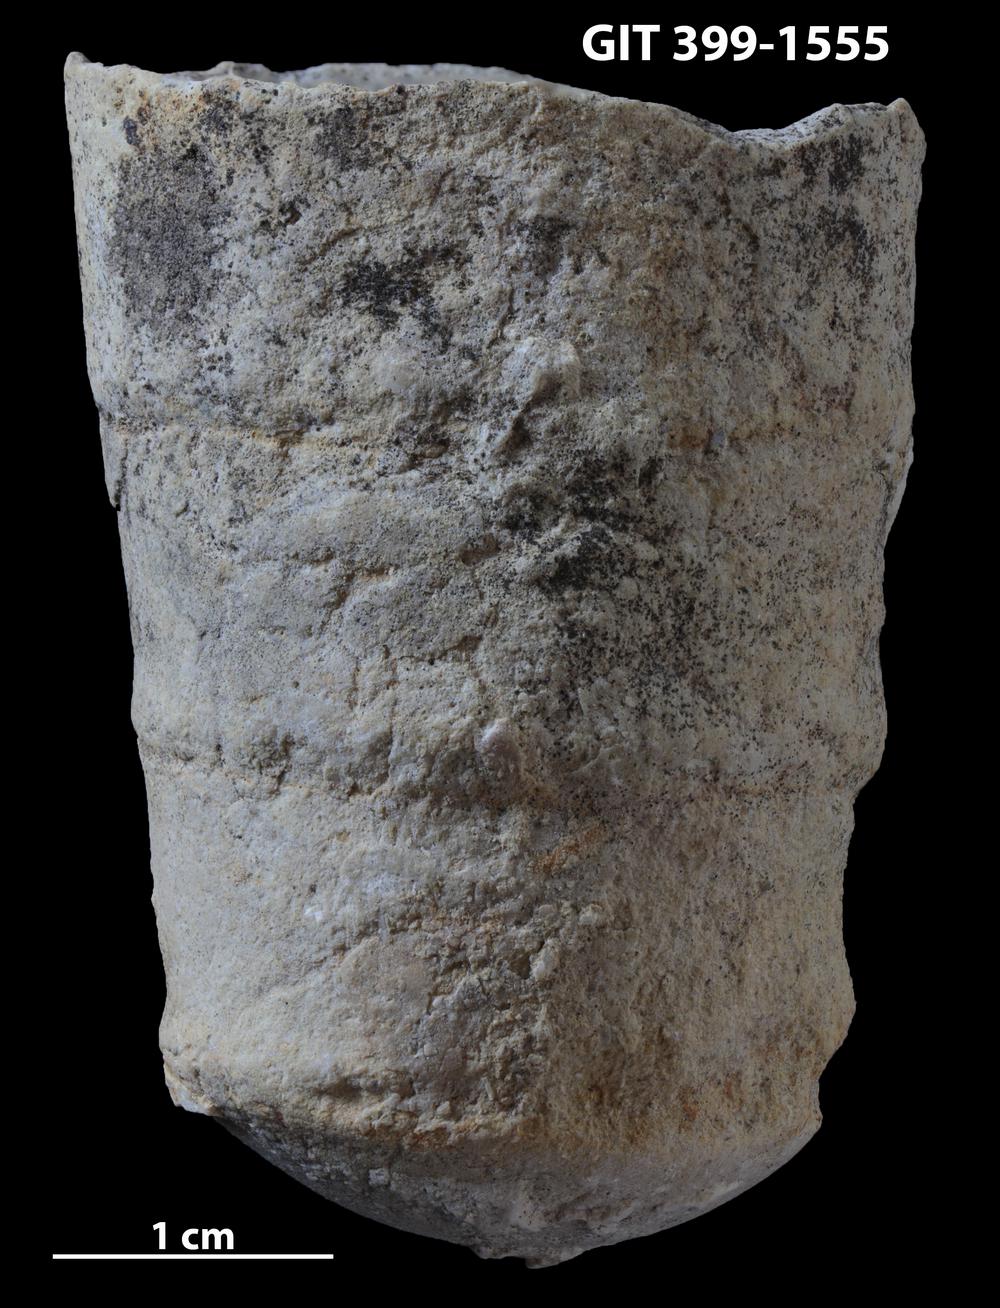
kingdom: Animalia
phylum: Mollusca
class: Cephalopoda
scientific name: Cephalopoda
